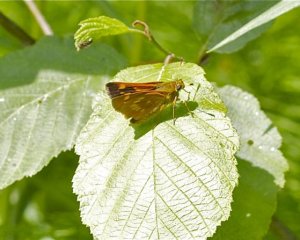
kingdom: Animalia
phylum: Arthropoda
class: Insecta
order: Lepidoptera
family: Hesperiidae
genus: Polites
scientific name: Polites
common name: Long Dash Skipper
